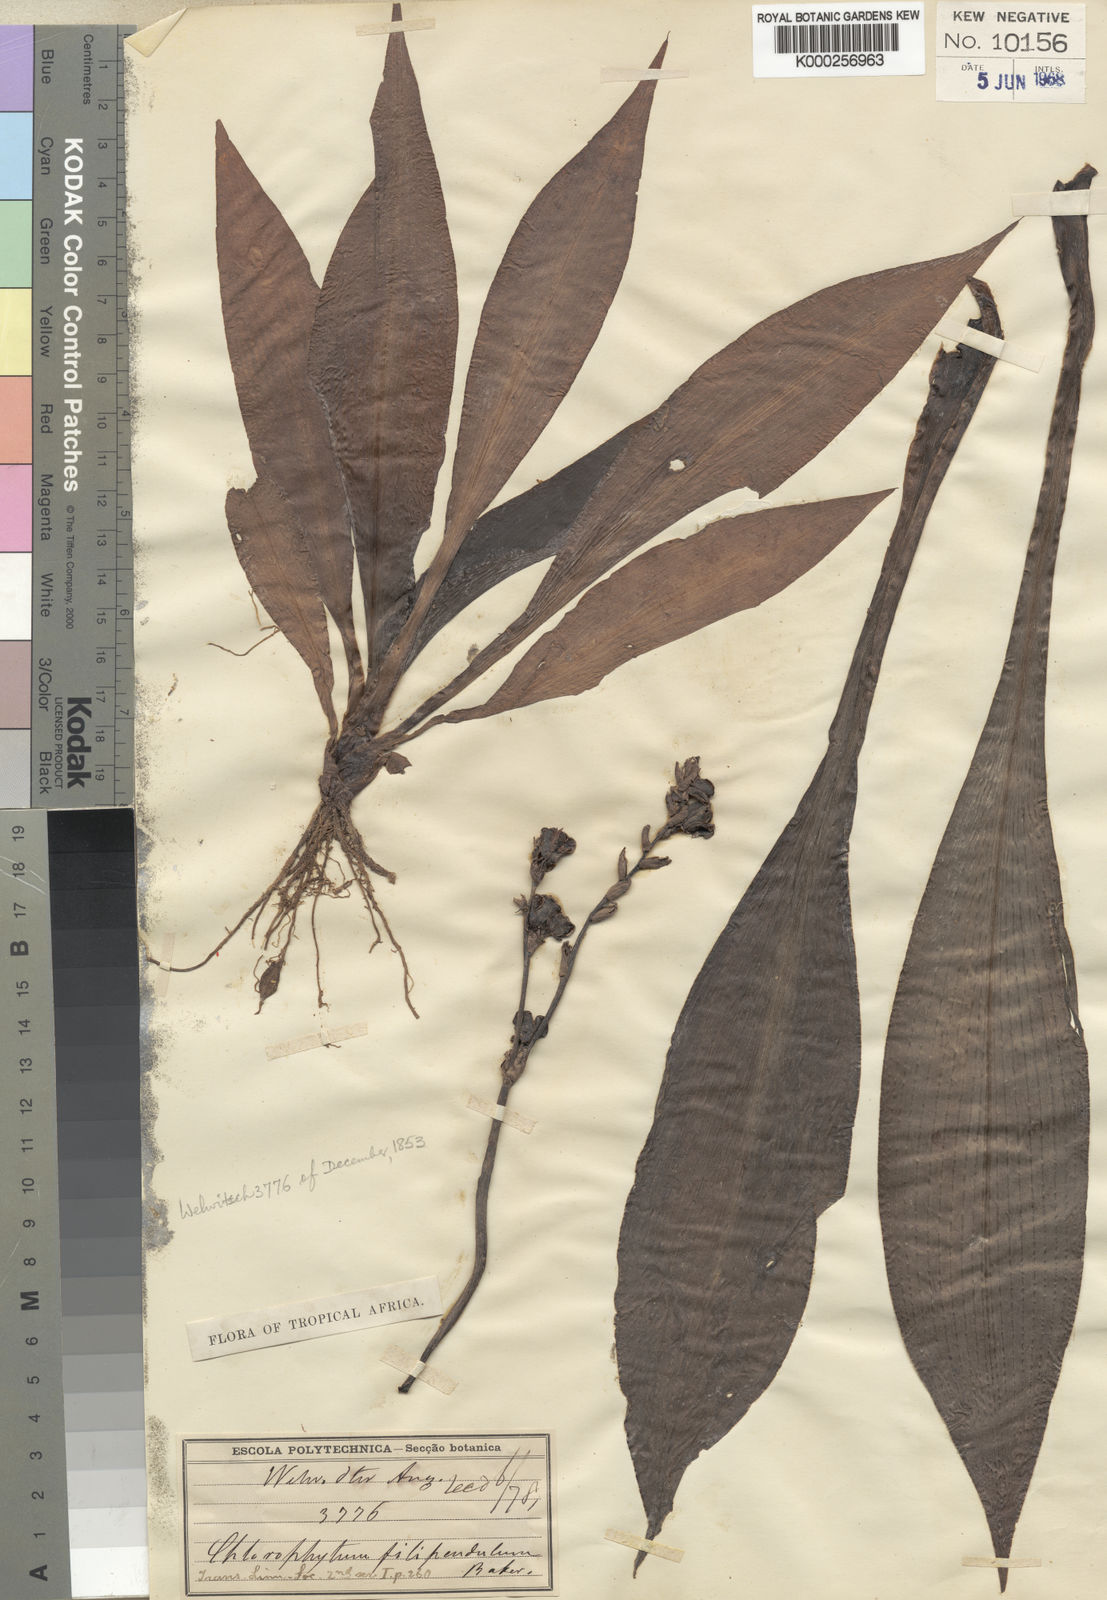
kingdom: Plantae
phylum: Tracheophyta
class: Liliopsida
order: Asparagales
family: Asparagaceae
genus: Chlorophytum
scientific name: Chlorophytum filipendulum
